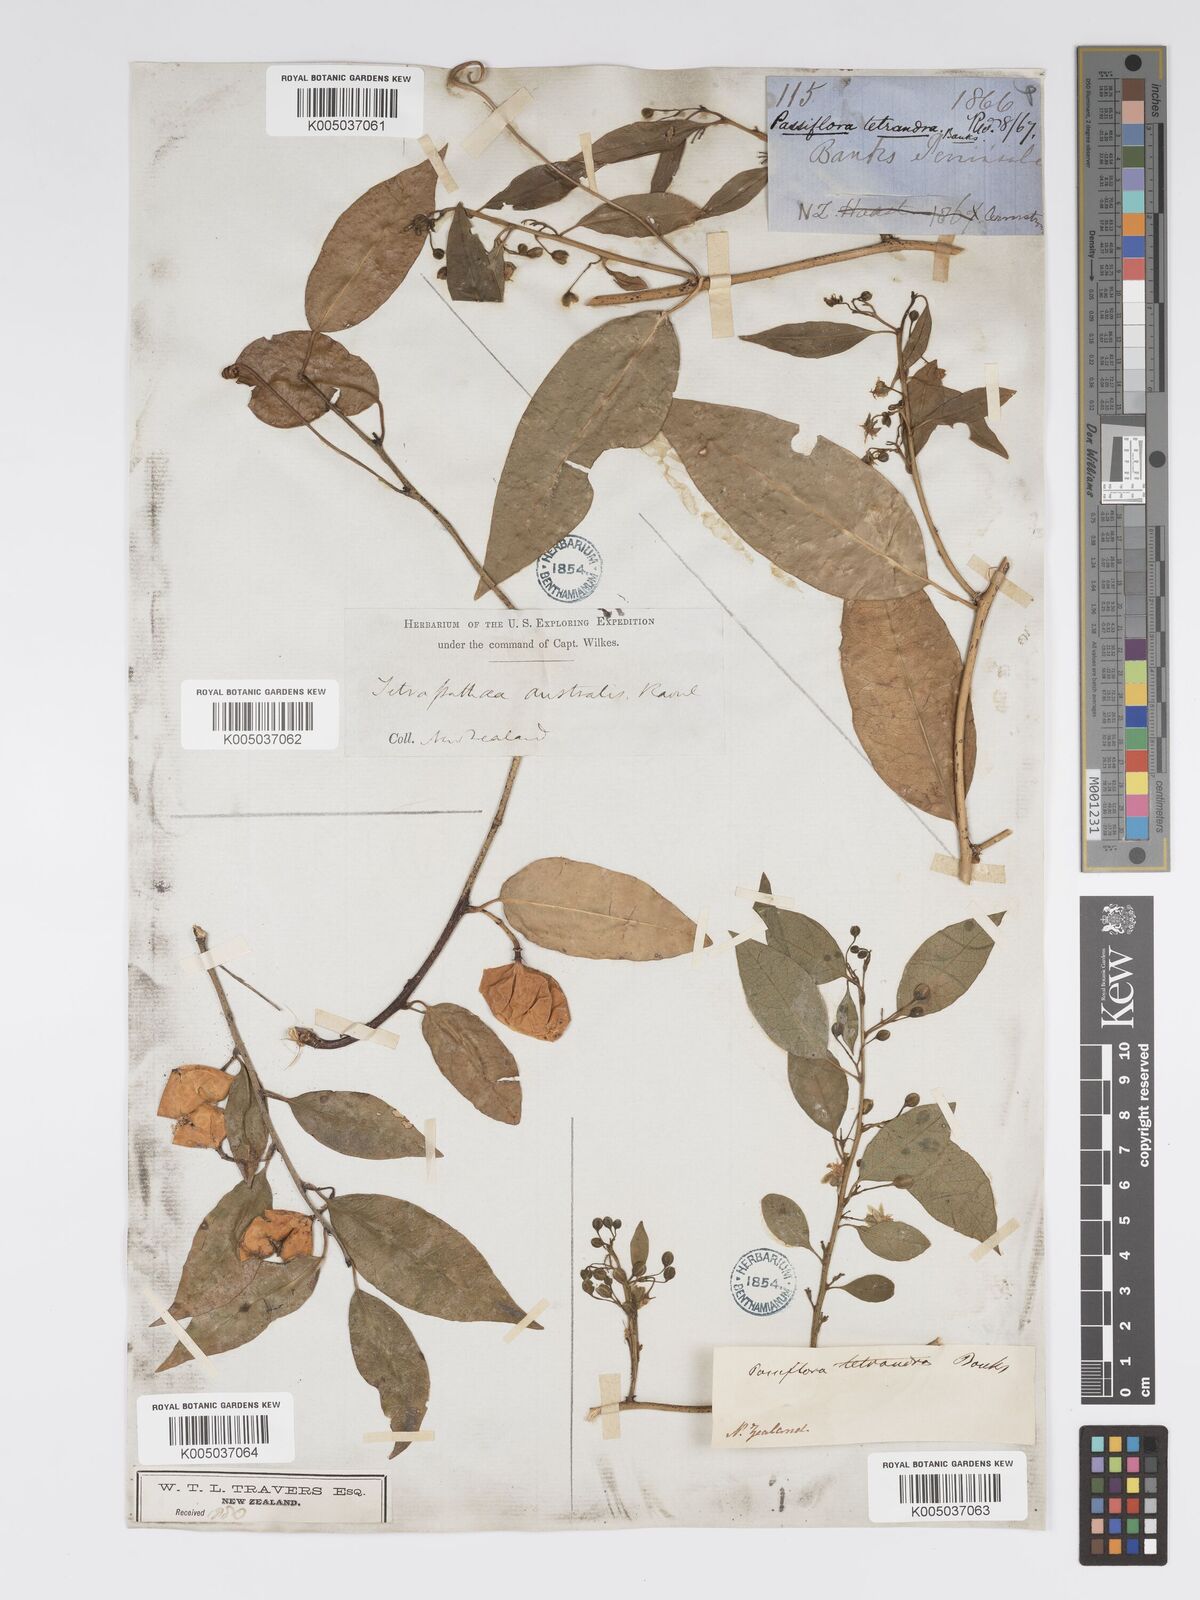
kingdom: Plantae
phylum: Tracheophyta
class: Magnoliopsida
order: Malpighiales
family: Passifloraceae
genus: Passiflora
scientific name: Passiflora tetrandra
